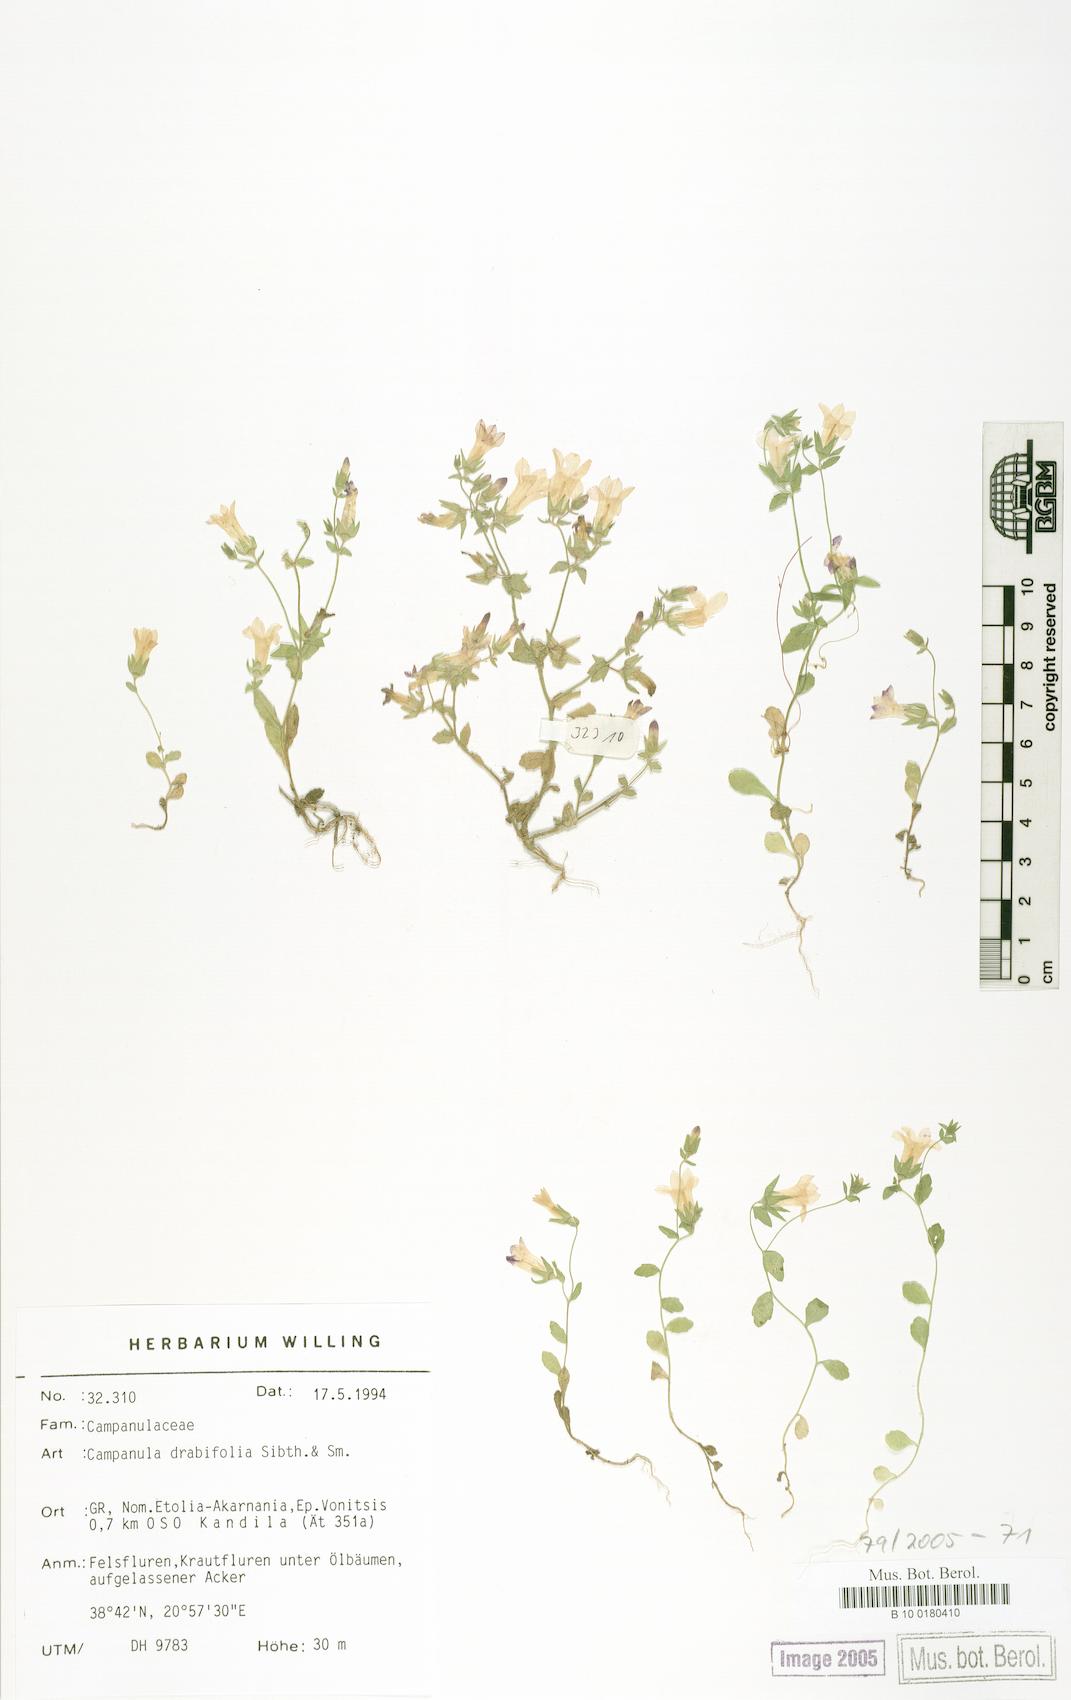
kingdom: Plantae
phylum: Tracheophyta
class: Magnoliopsida
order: Asterales
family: Campanulaceae
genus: Campanula
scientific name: Campanula drabifolia
